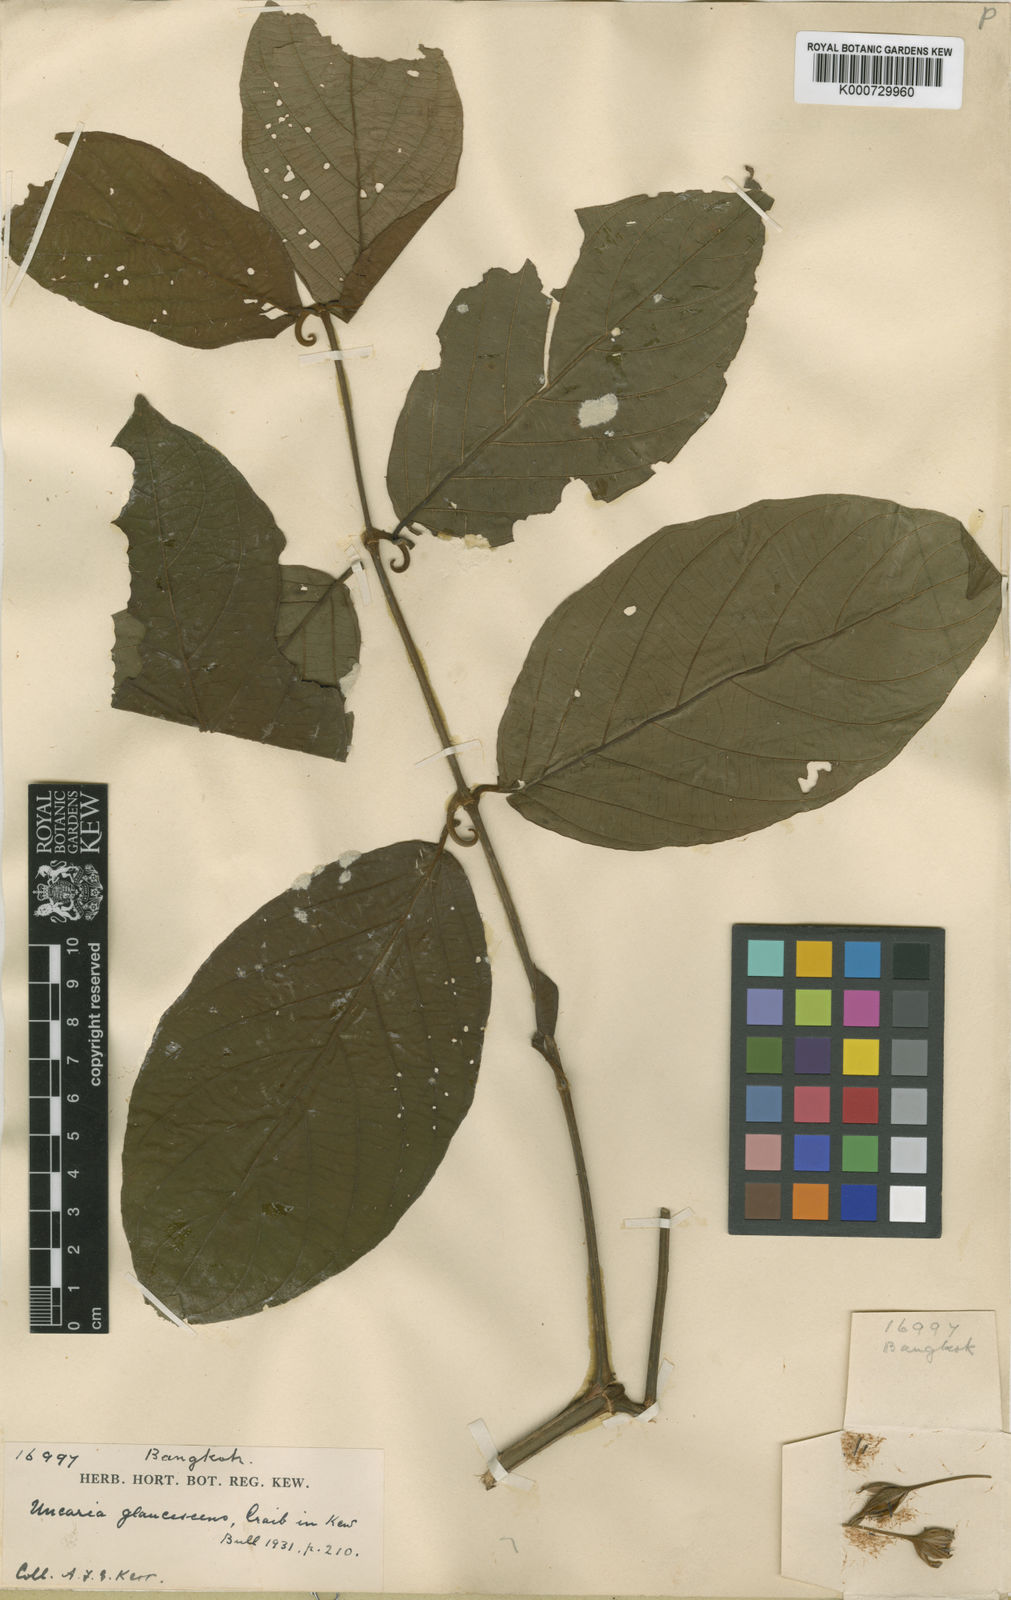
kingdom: Plantae
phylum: Tracheophyta
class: Magnoliopsida
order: Gentianales
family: Rubiaceae
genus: Uncaria
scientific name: Uncaria cordata
